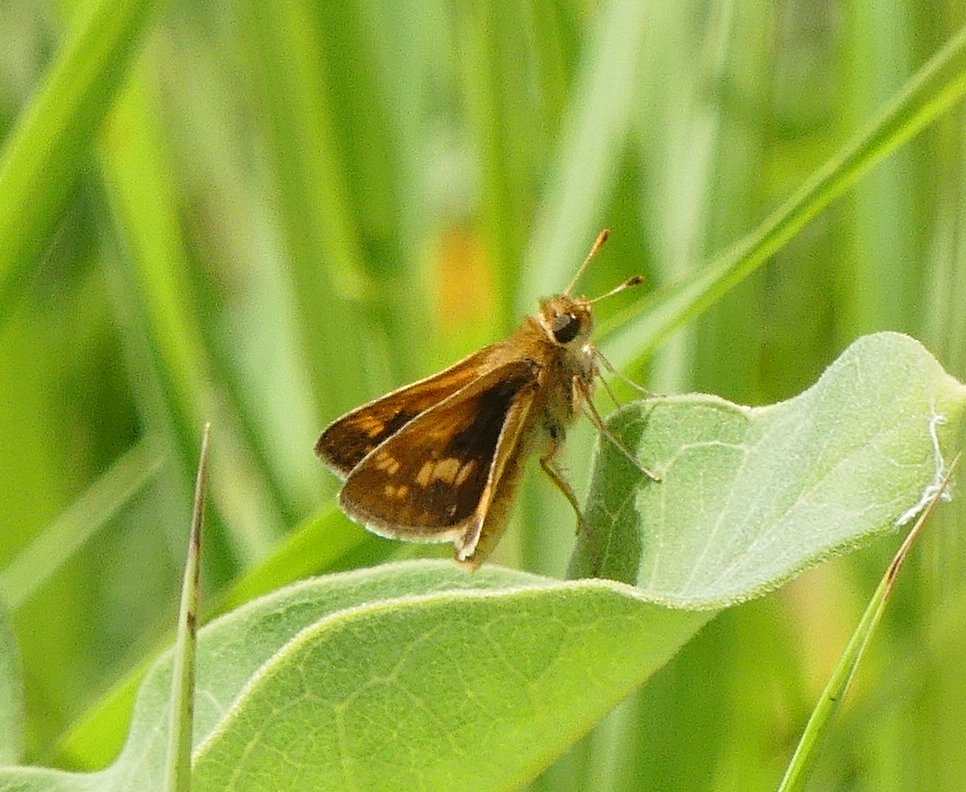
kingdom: Animalia
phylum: Arthropoda
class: Insecta
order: Lepidoptera
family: Hesperiidae
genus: Polites
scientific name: Polites coras
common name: Peck's Skipper
